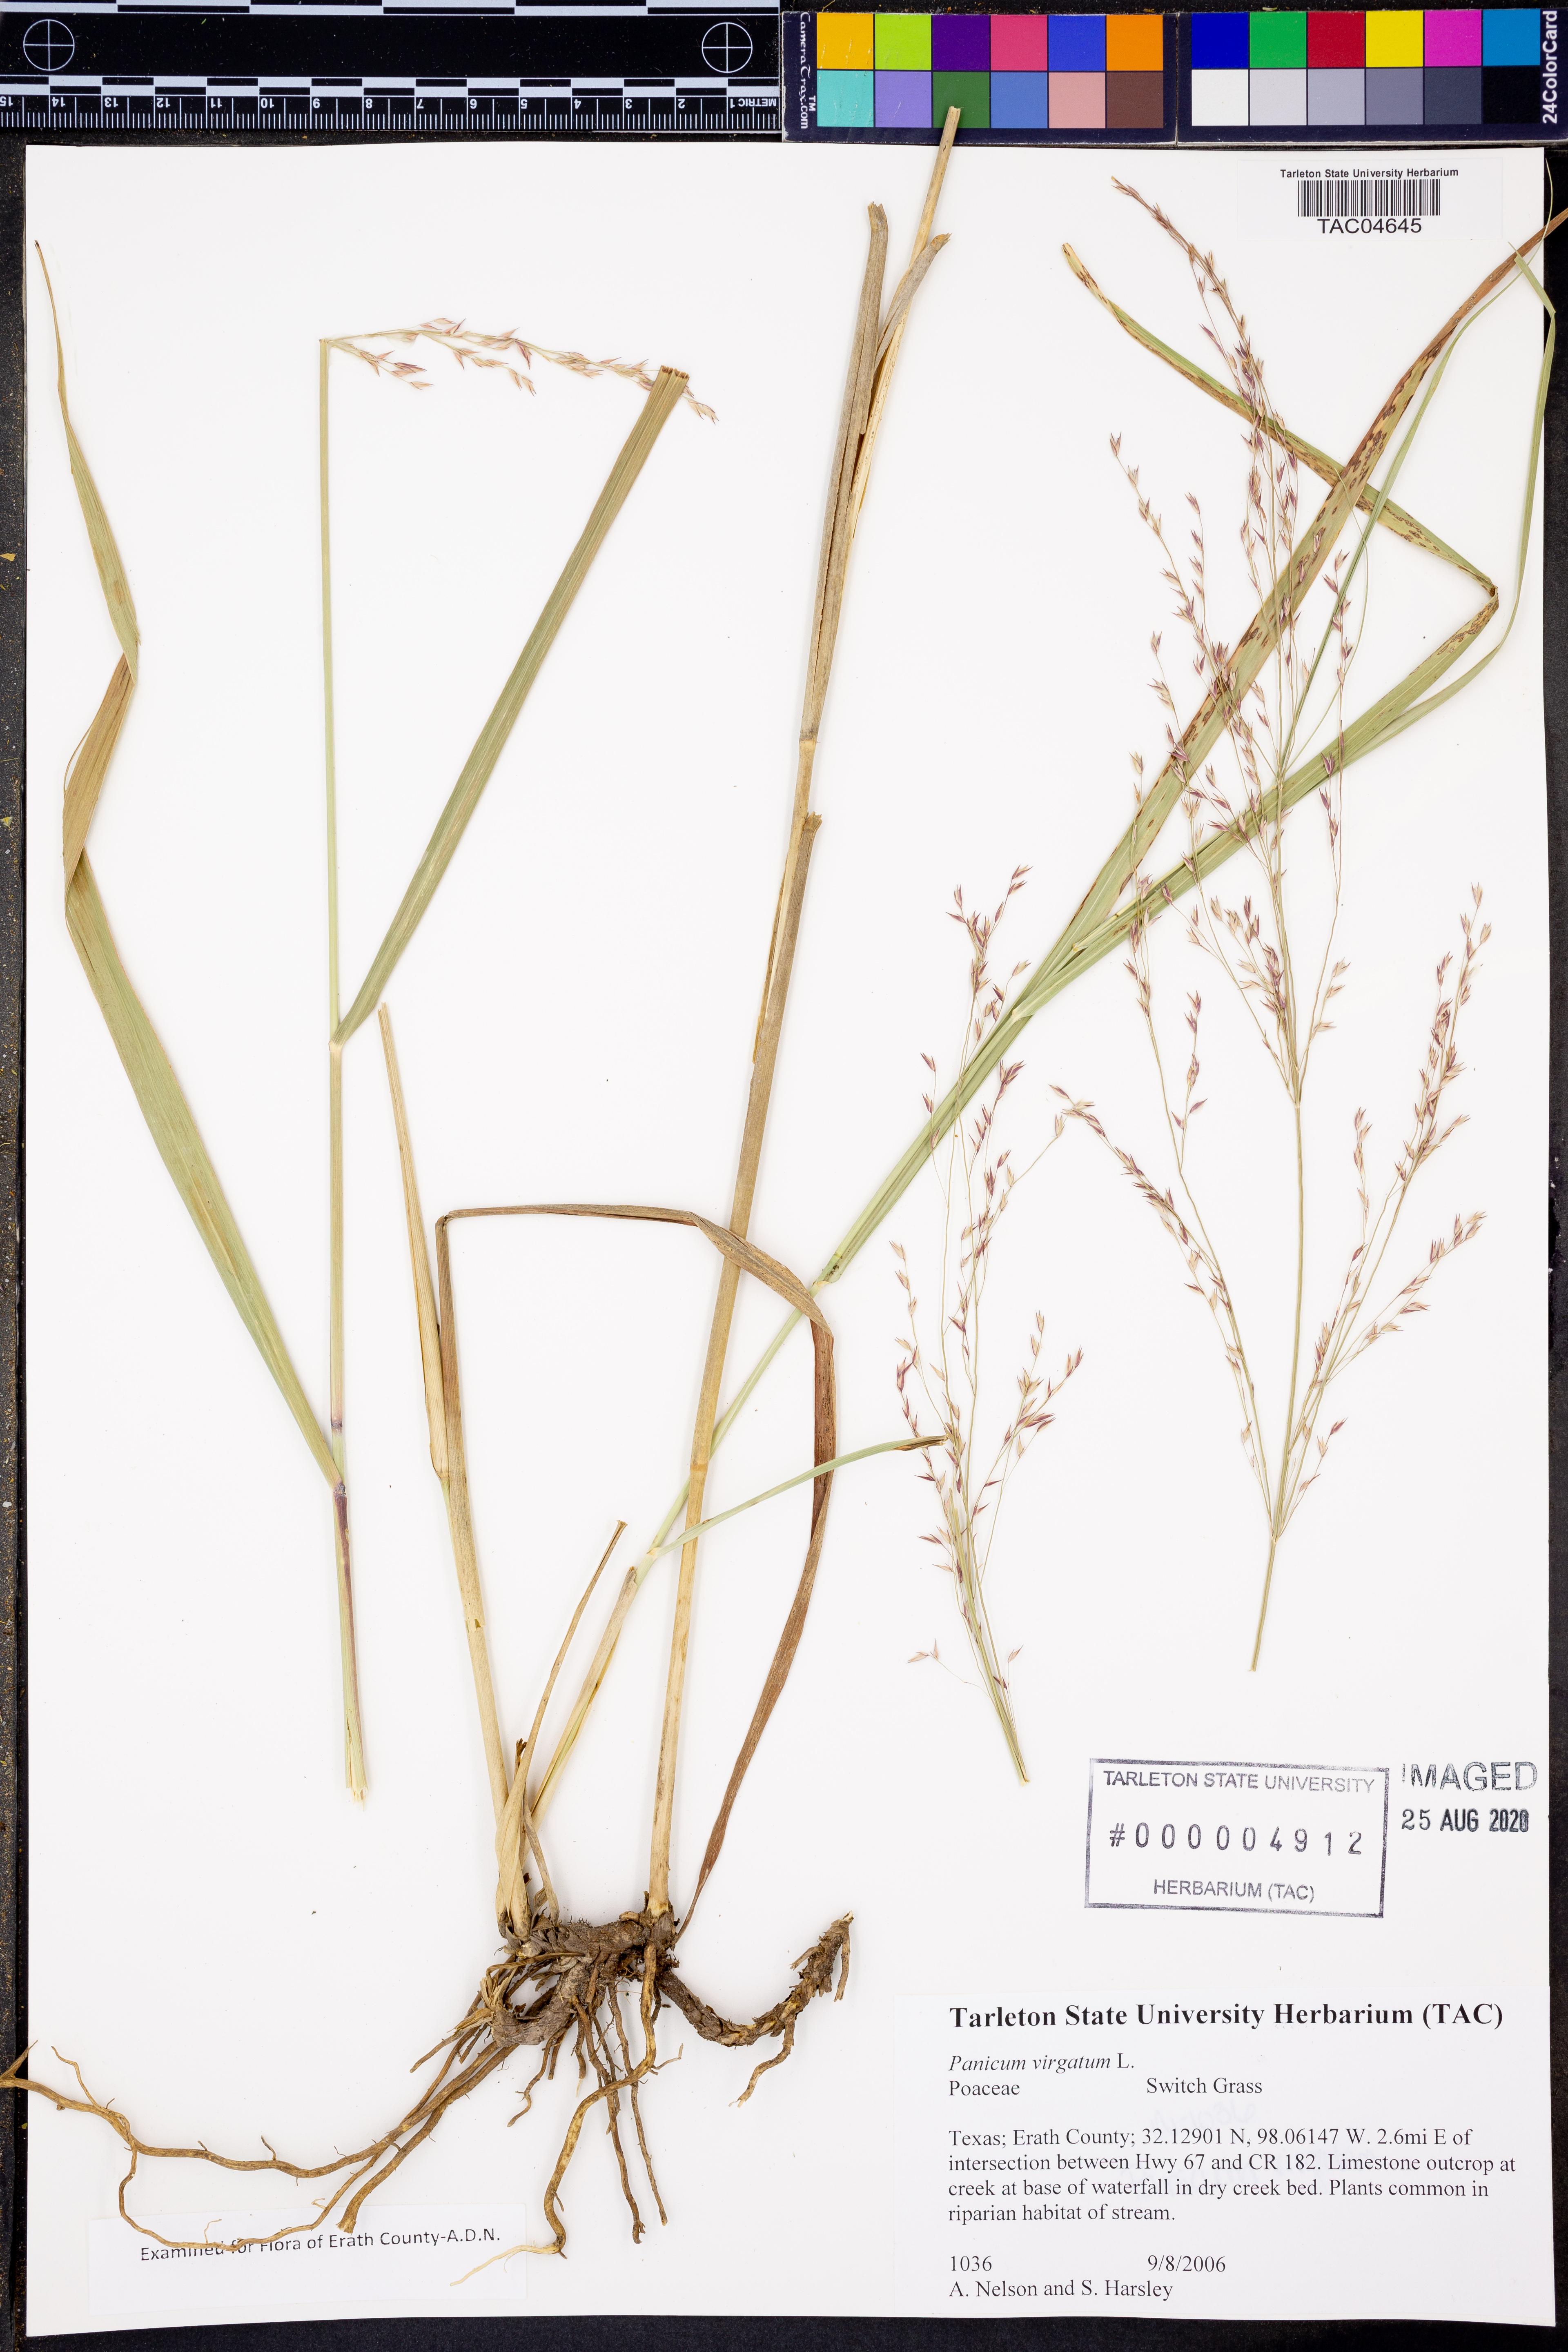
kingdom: Plantae
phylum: Tracheophyta
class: Liliopsida
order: Poales
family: Poaceae
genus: Panicum
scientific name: Panicum virgatum
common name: Switchgrass
